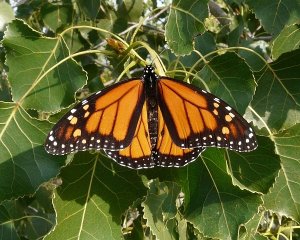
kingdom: Animalia
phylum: Arthropoda
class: Insecta
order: Lepidoptera
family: Nymphalidae
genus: Danaus
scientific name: Danaus plexippus
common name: Monarch
